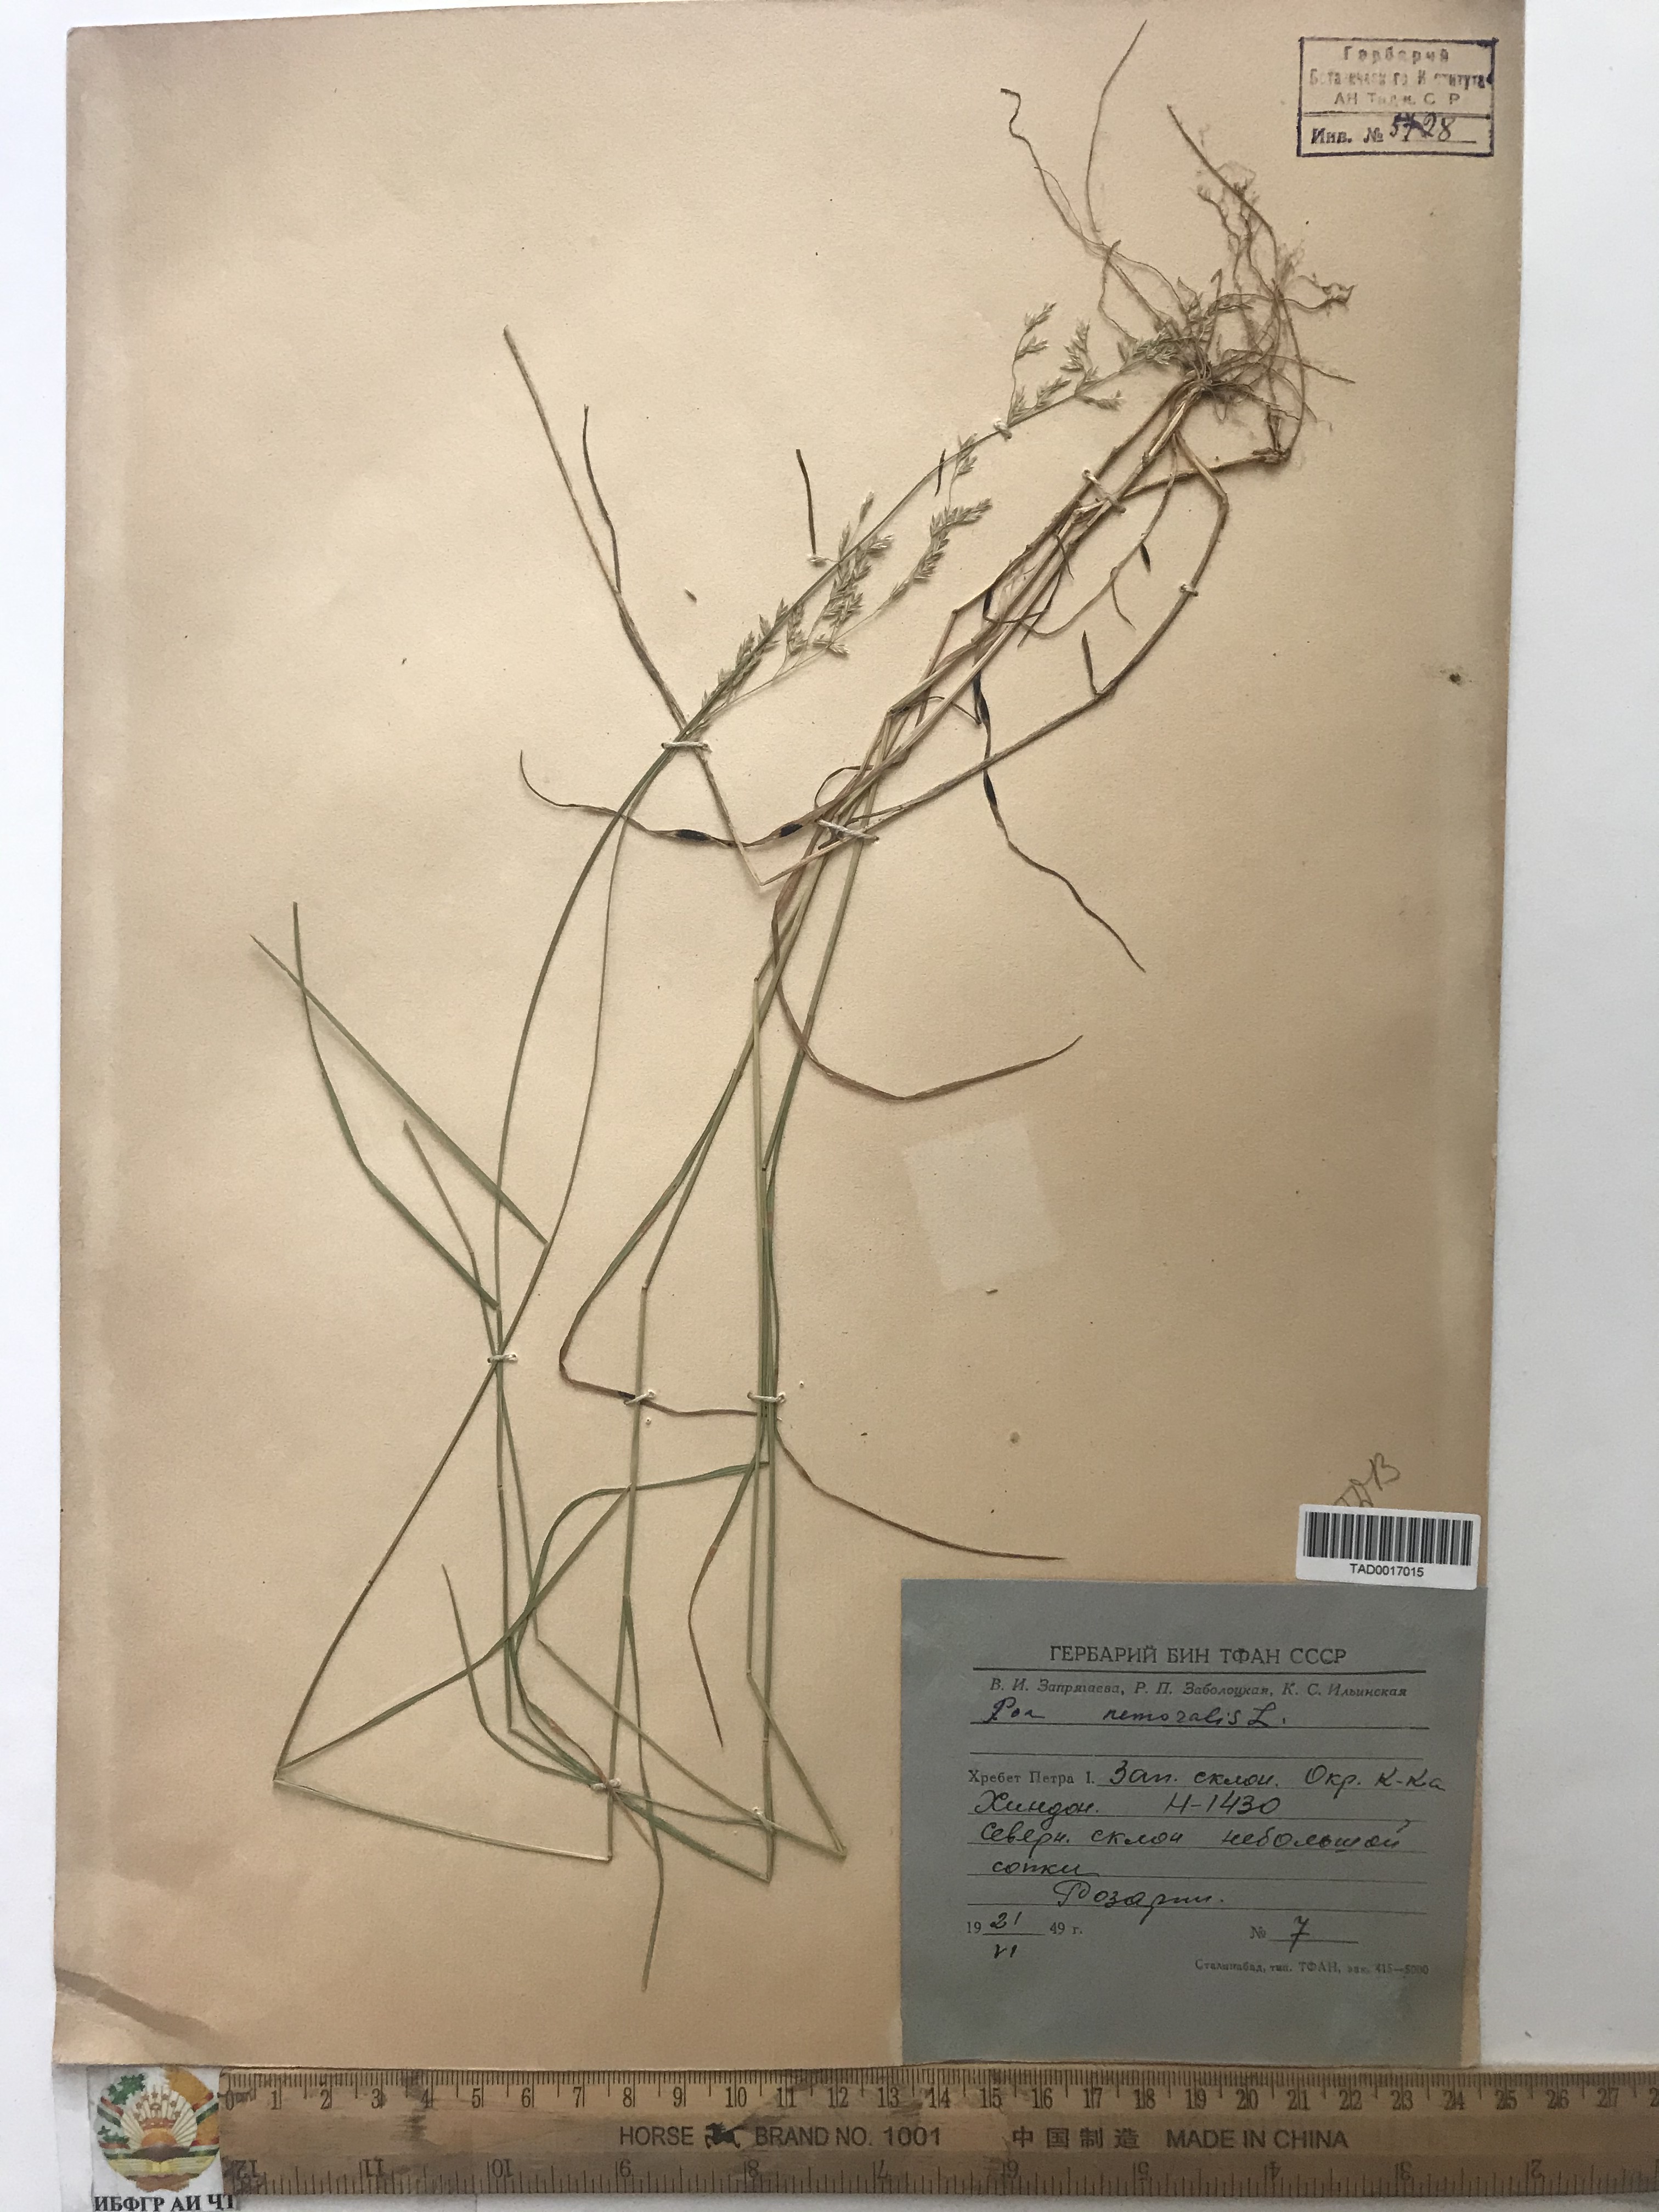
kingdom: Plantae
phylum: Tracheophyta
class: Liliopsida
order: Poales
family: Poaceae
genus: Poa
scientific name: Poa nemoralis
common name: Wood bluegrass
